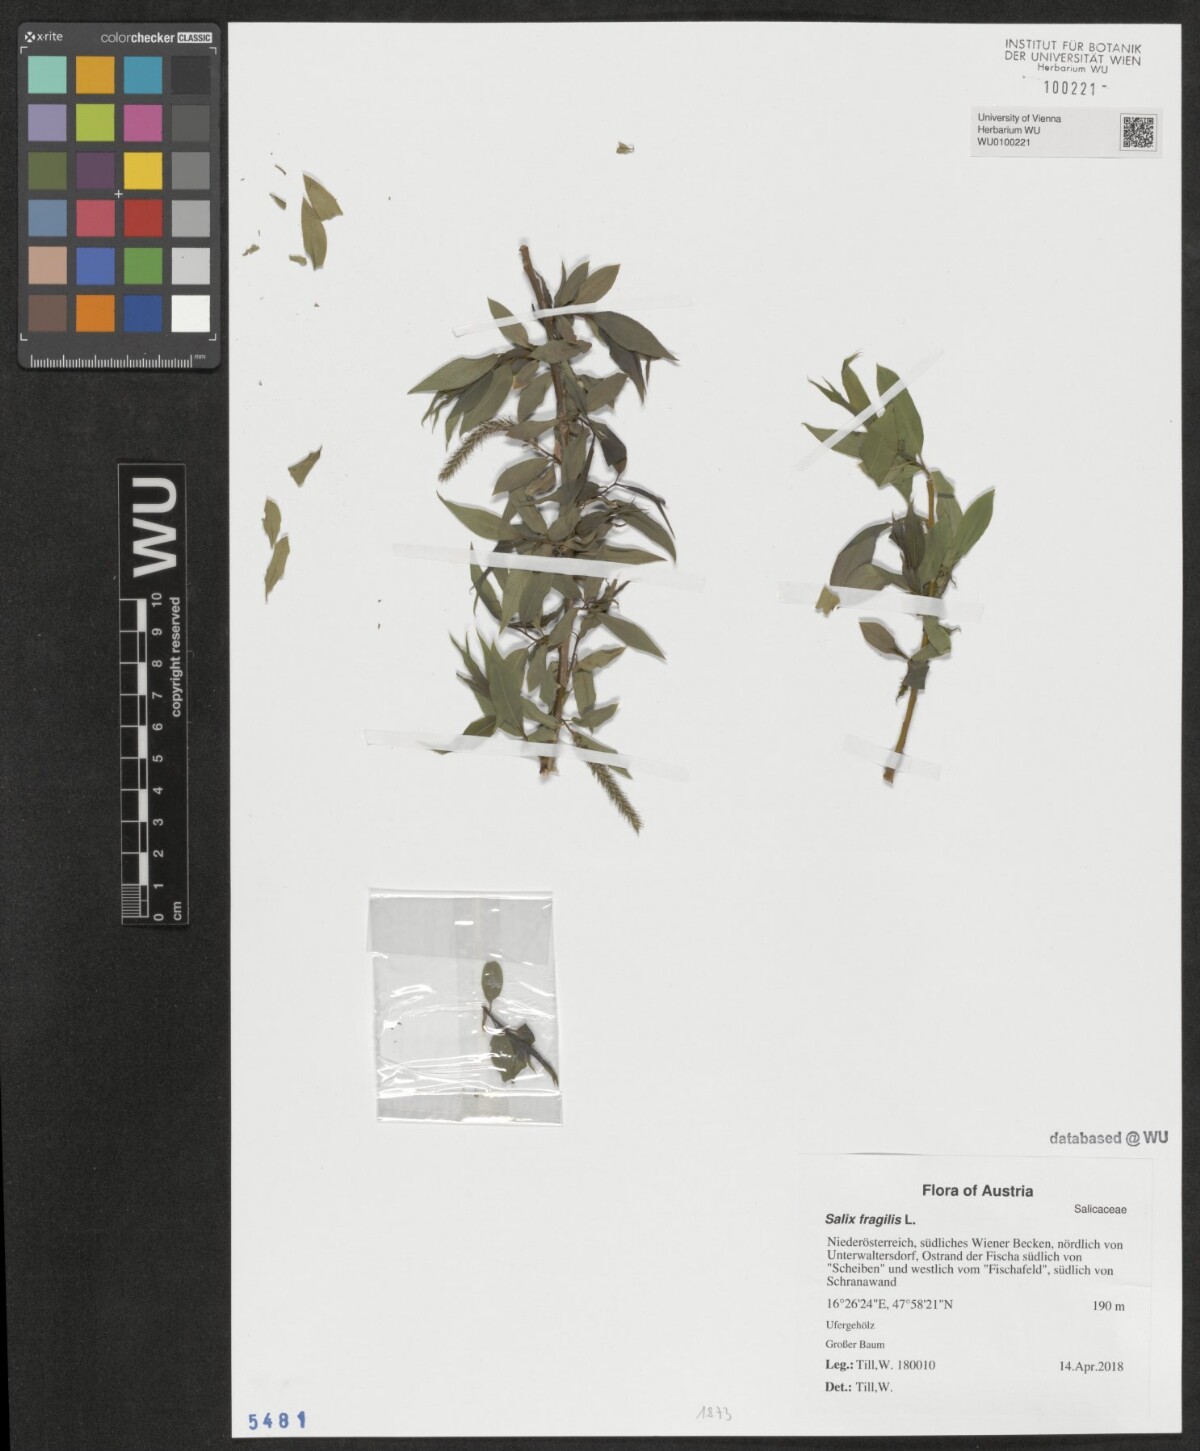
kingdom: Plantae
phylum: Tracheophyta
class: Magnoliopsida
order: Malpighiales
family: Salicaceae
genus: Salix
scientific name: Salix fragilis
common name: Crack willow
